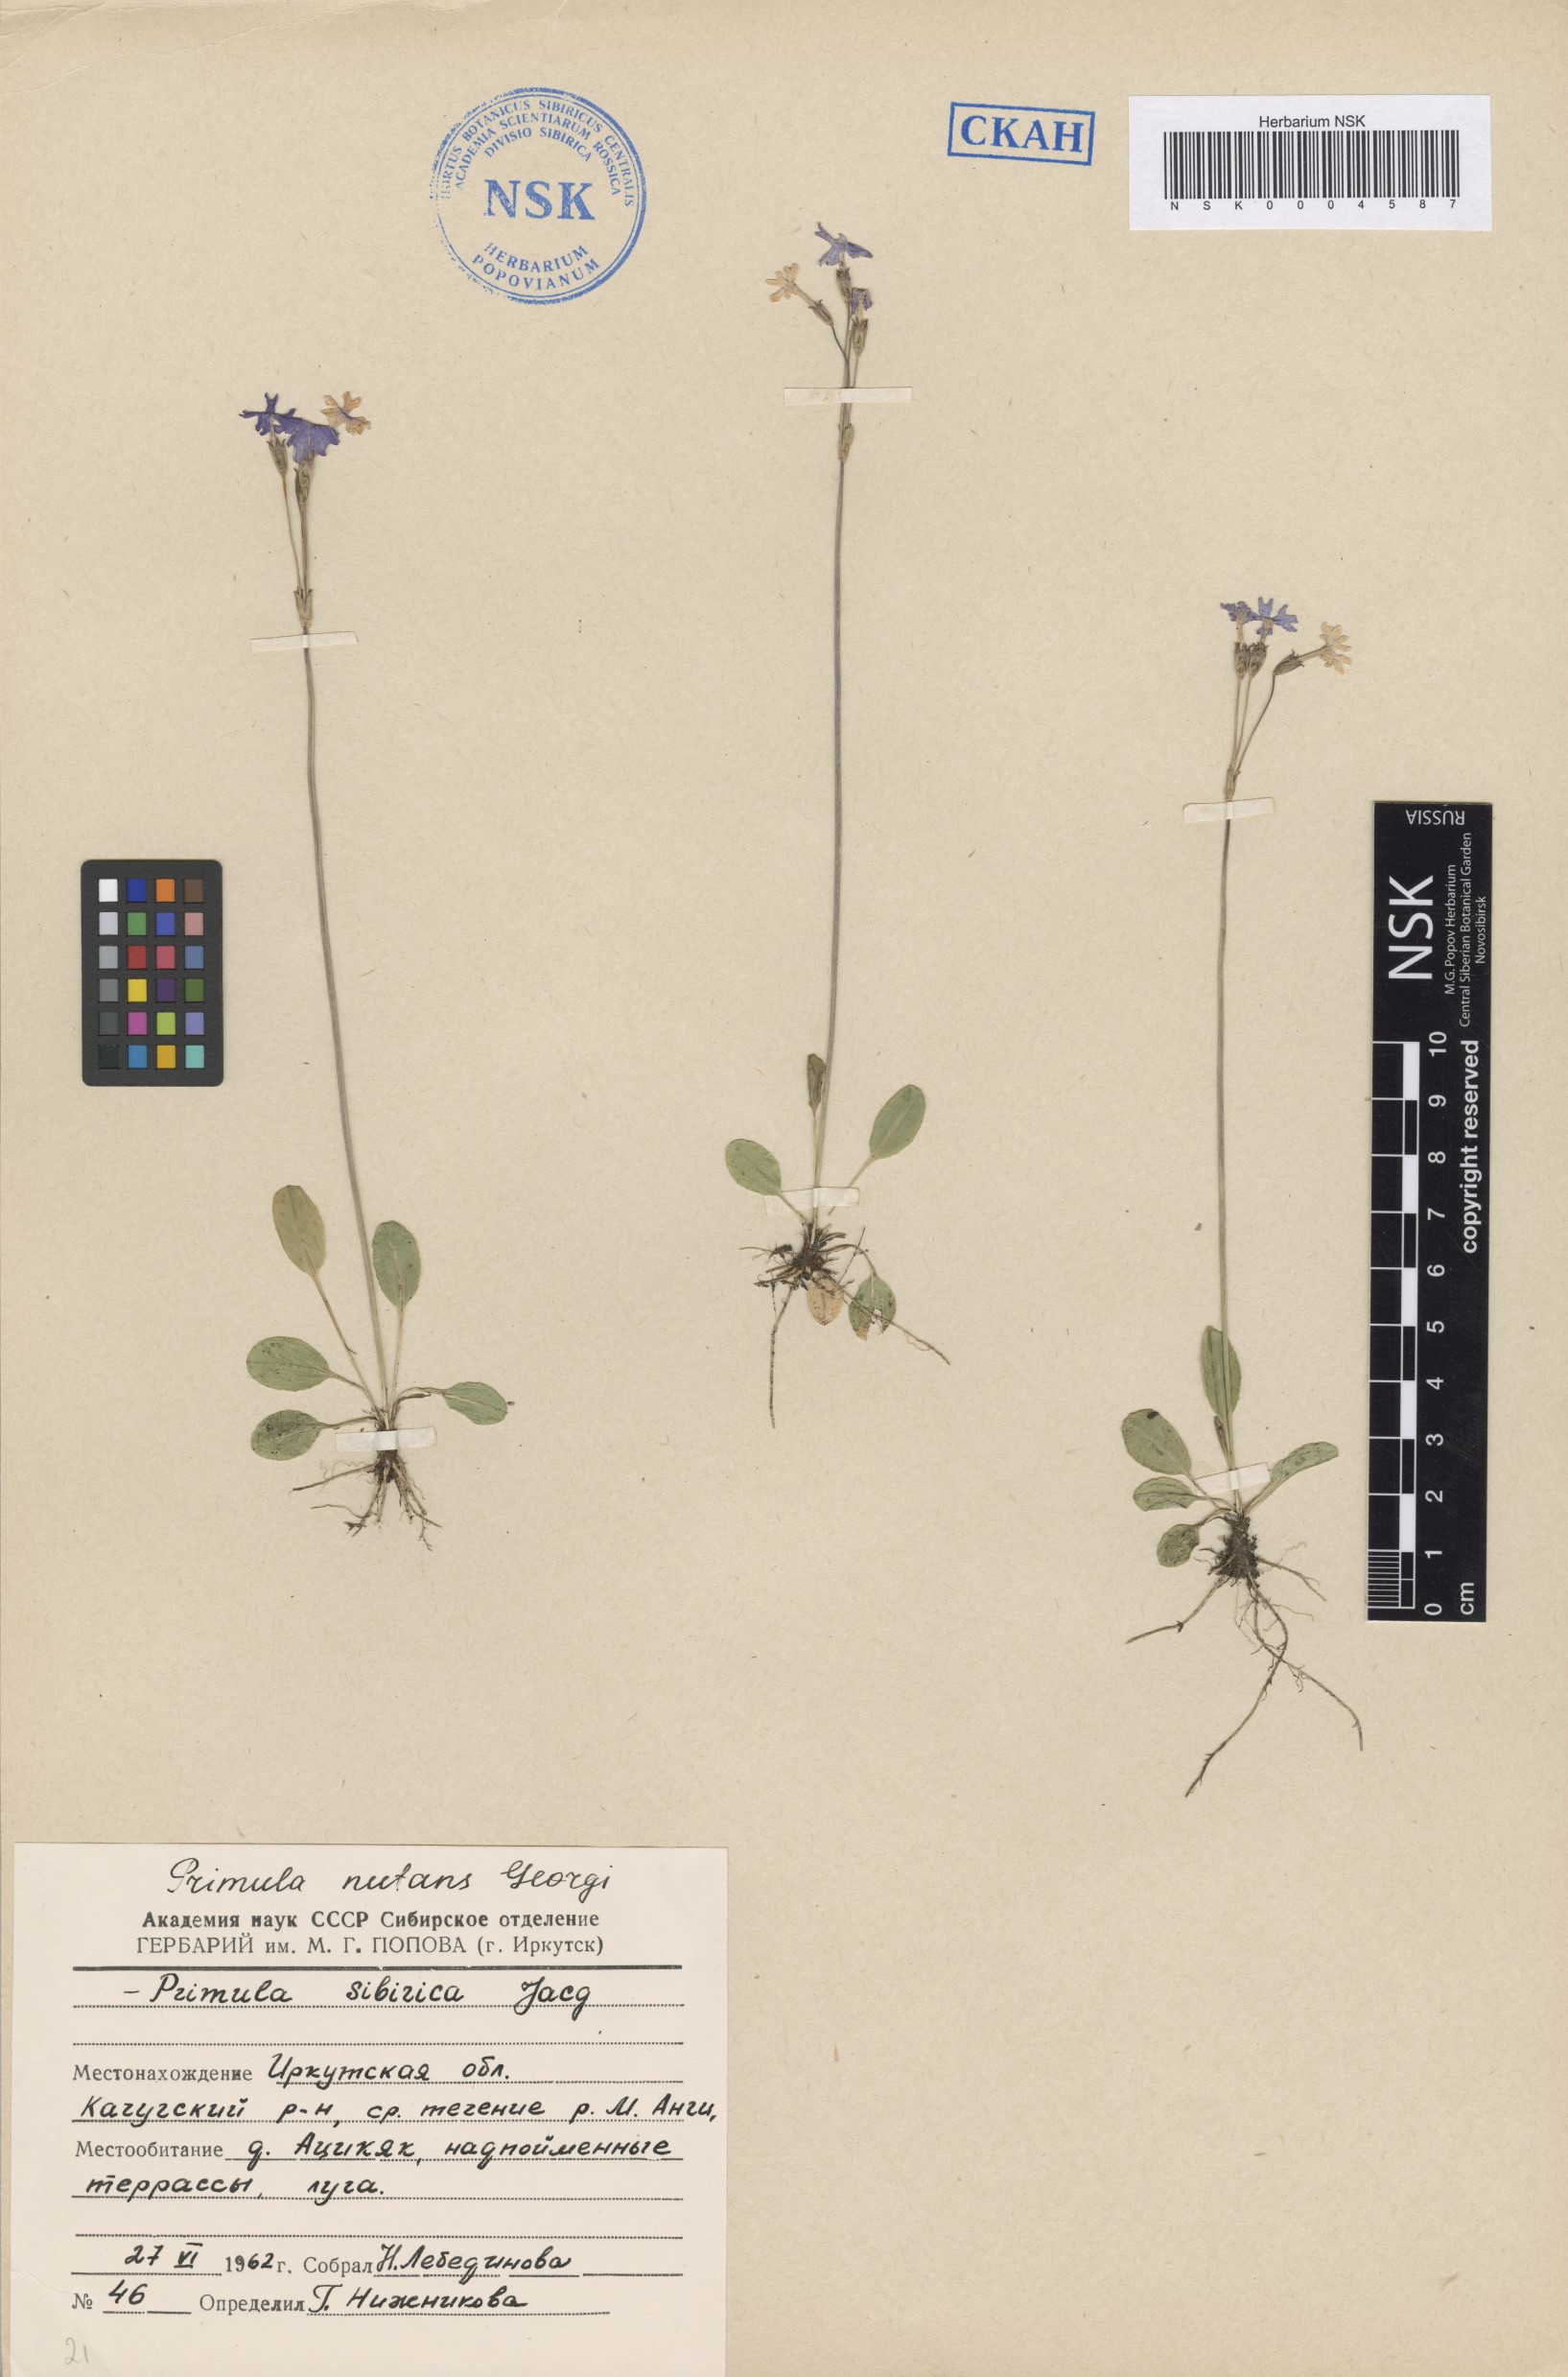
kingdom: Plantae
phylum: Tracheophyta
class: Magnoliopsida
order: Ericales
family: Primulaceae
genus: Primula
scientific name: Primula nutans
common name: Siberian primrose
